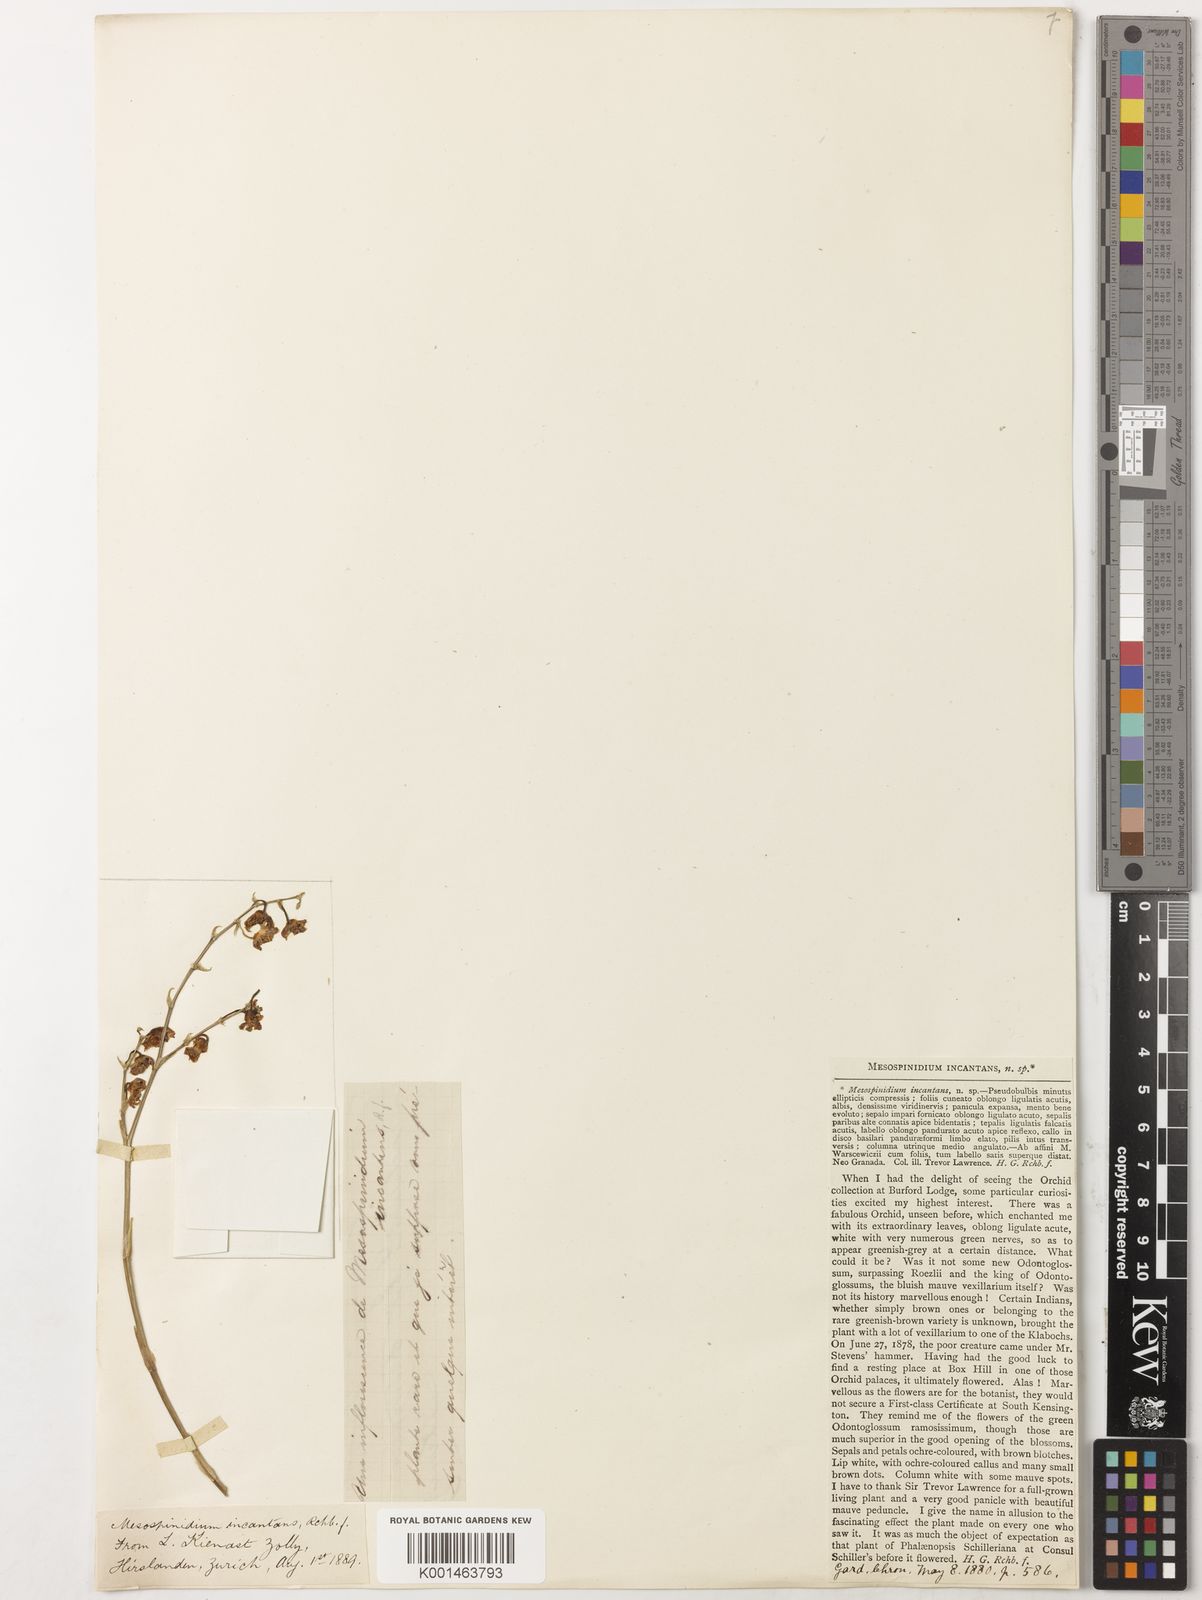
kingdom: Plantae
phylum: Tracheophyta
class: Liliopsida
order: Asparagales
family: Orchidaceae
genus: Brassia
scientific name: Brassia incantans
